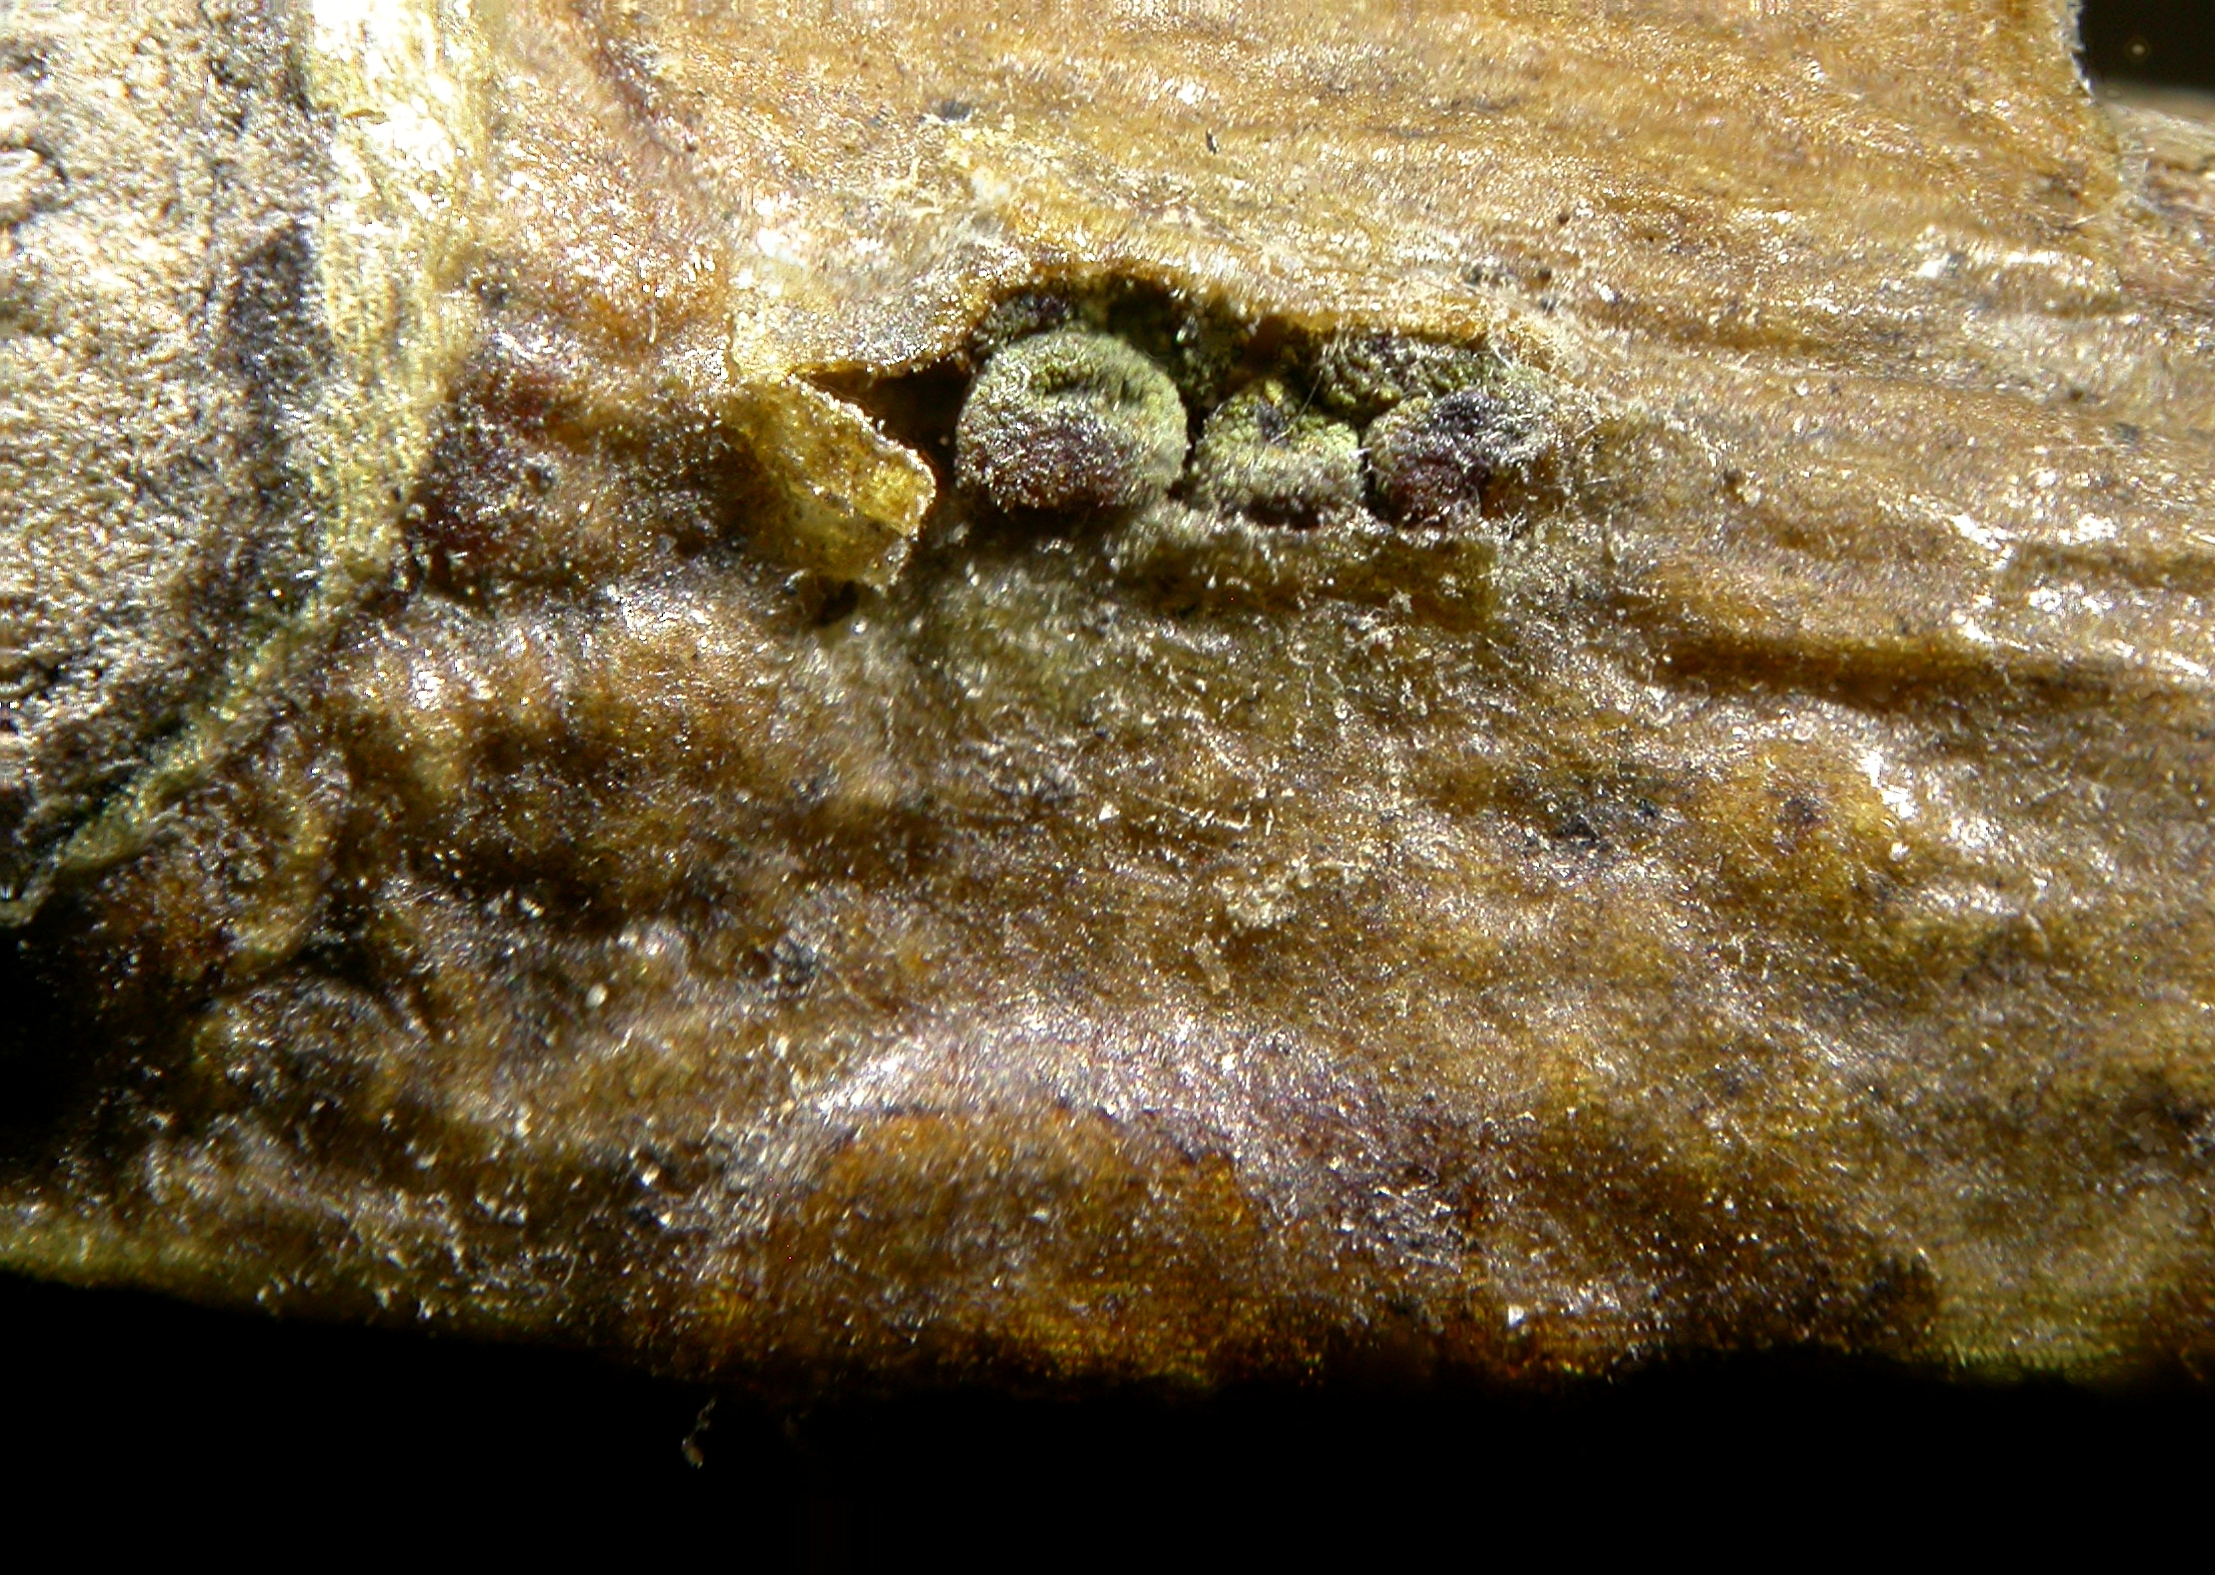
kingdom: Fungi
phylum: Ascomycota
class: Sordariomycetes
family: Thyridiaceae
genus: Thyronectria
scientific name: Thyronectria aquifolii
